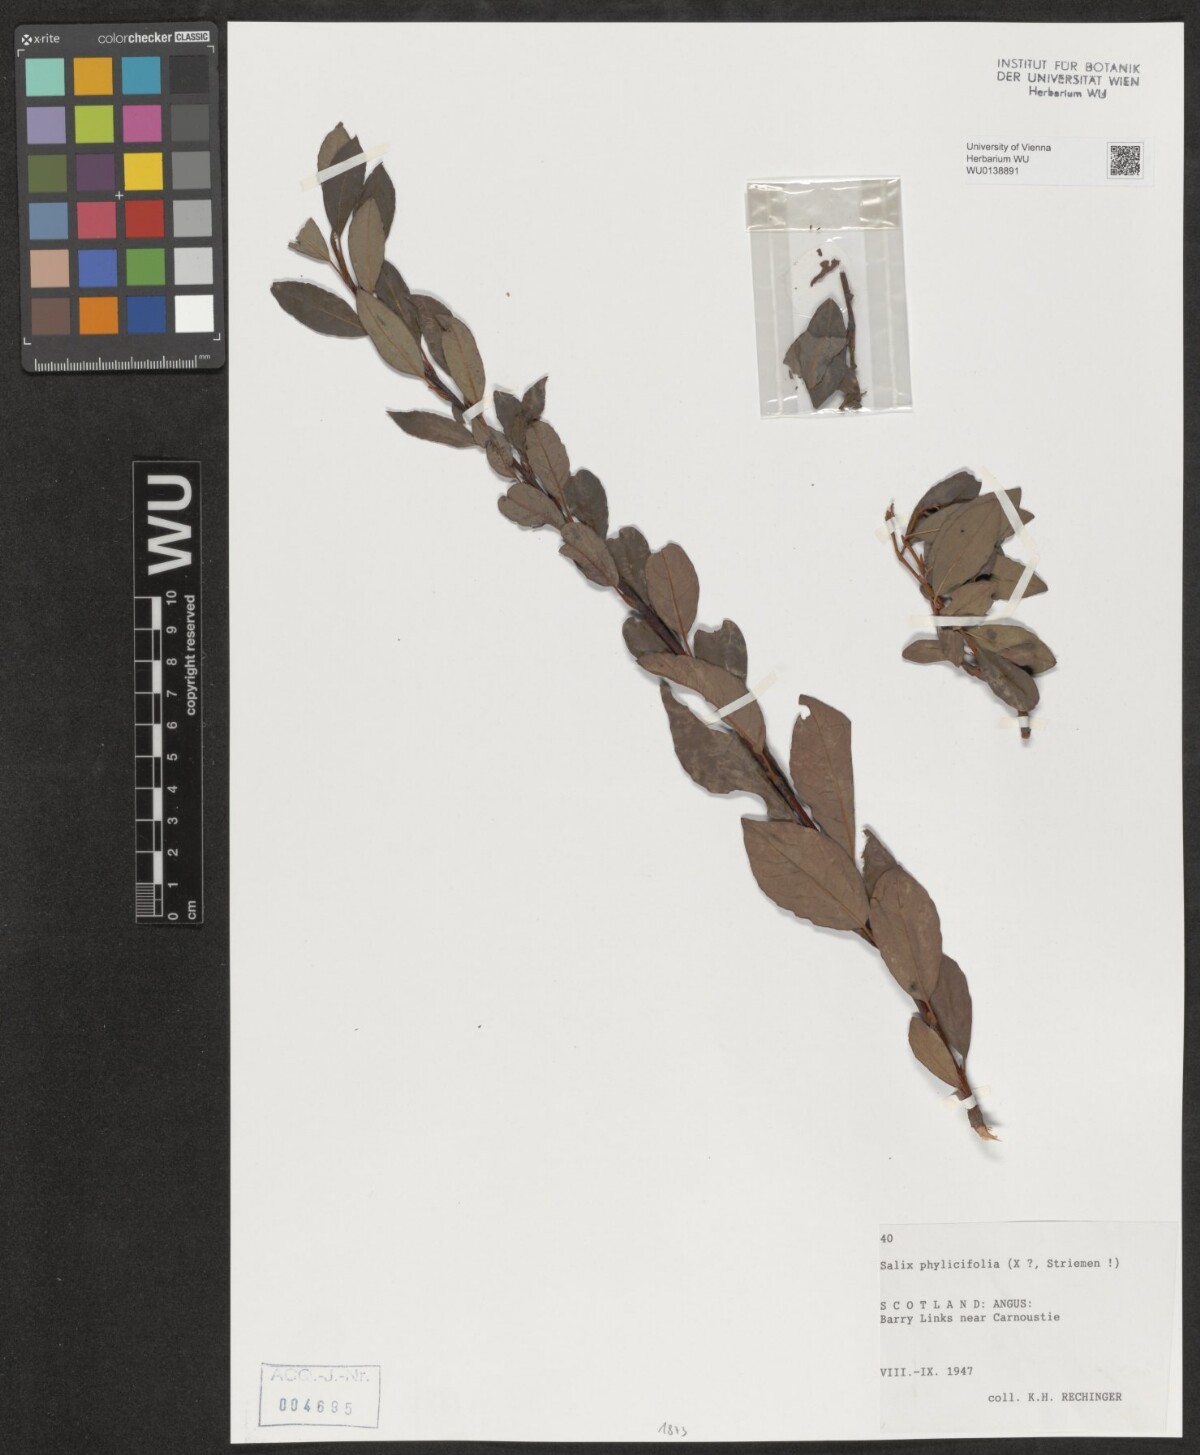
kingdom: Plantae
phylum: Tracheophyta
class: Magnoliopsida
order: Malpighiales
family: Salicaceae
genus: Salix
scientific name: Salix phylicifolia
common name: Tea-leaved willow
